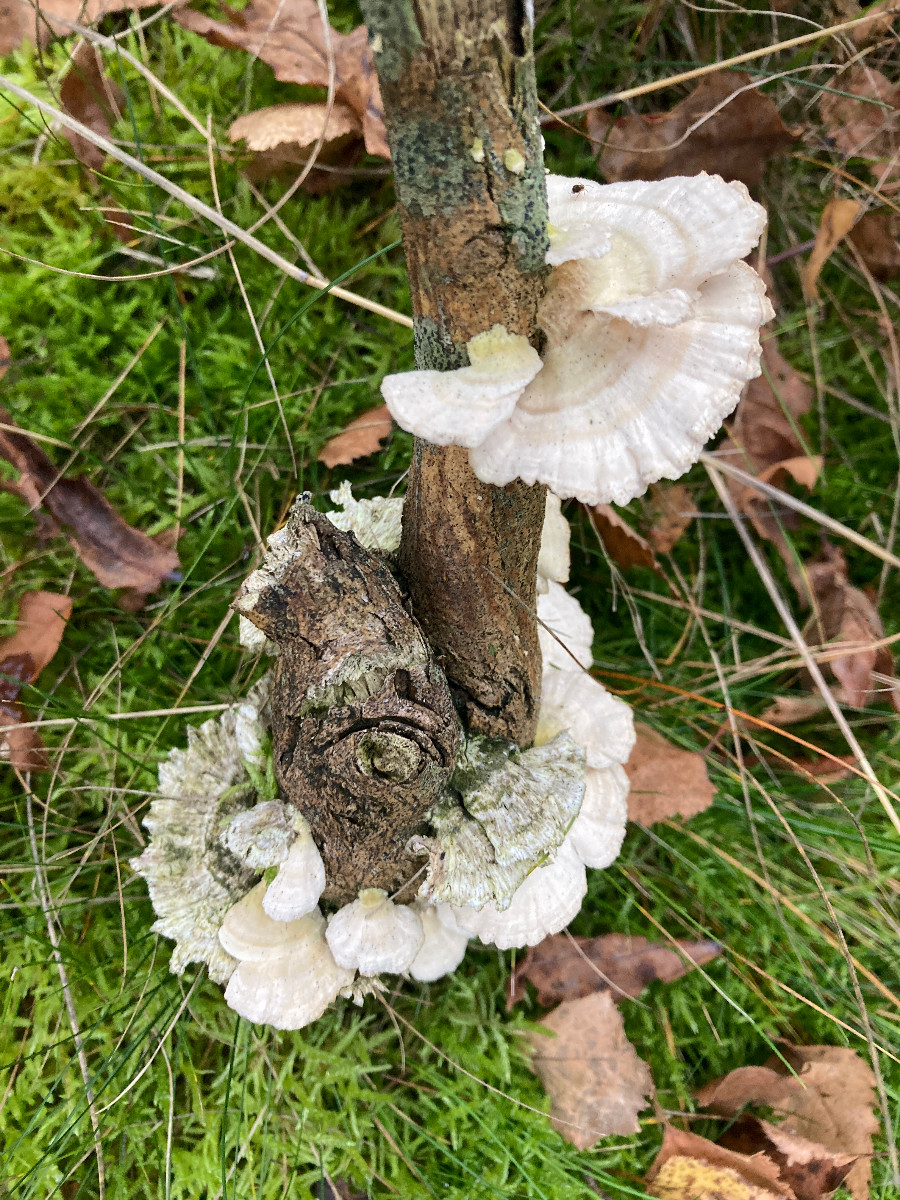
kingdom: Fungi
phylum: Basidiomycota
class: Agaricomycetes
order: Polyporales
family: Polyporaceae
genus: Trametes
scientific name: Trametes hirsuta
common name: håret læderporesvamp
